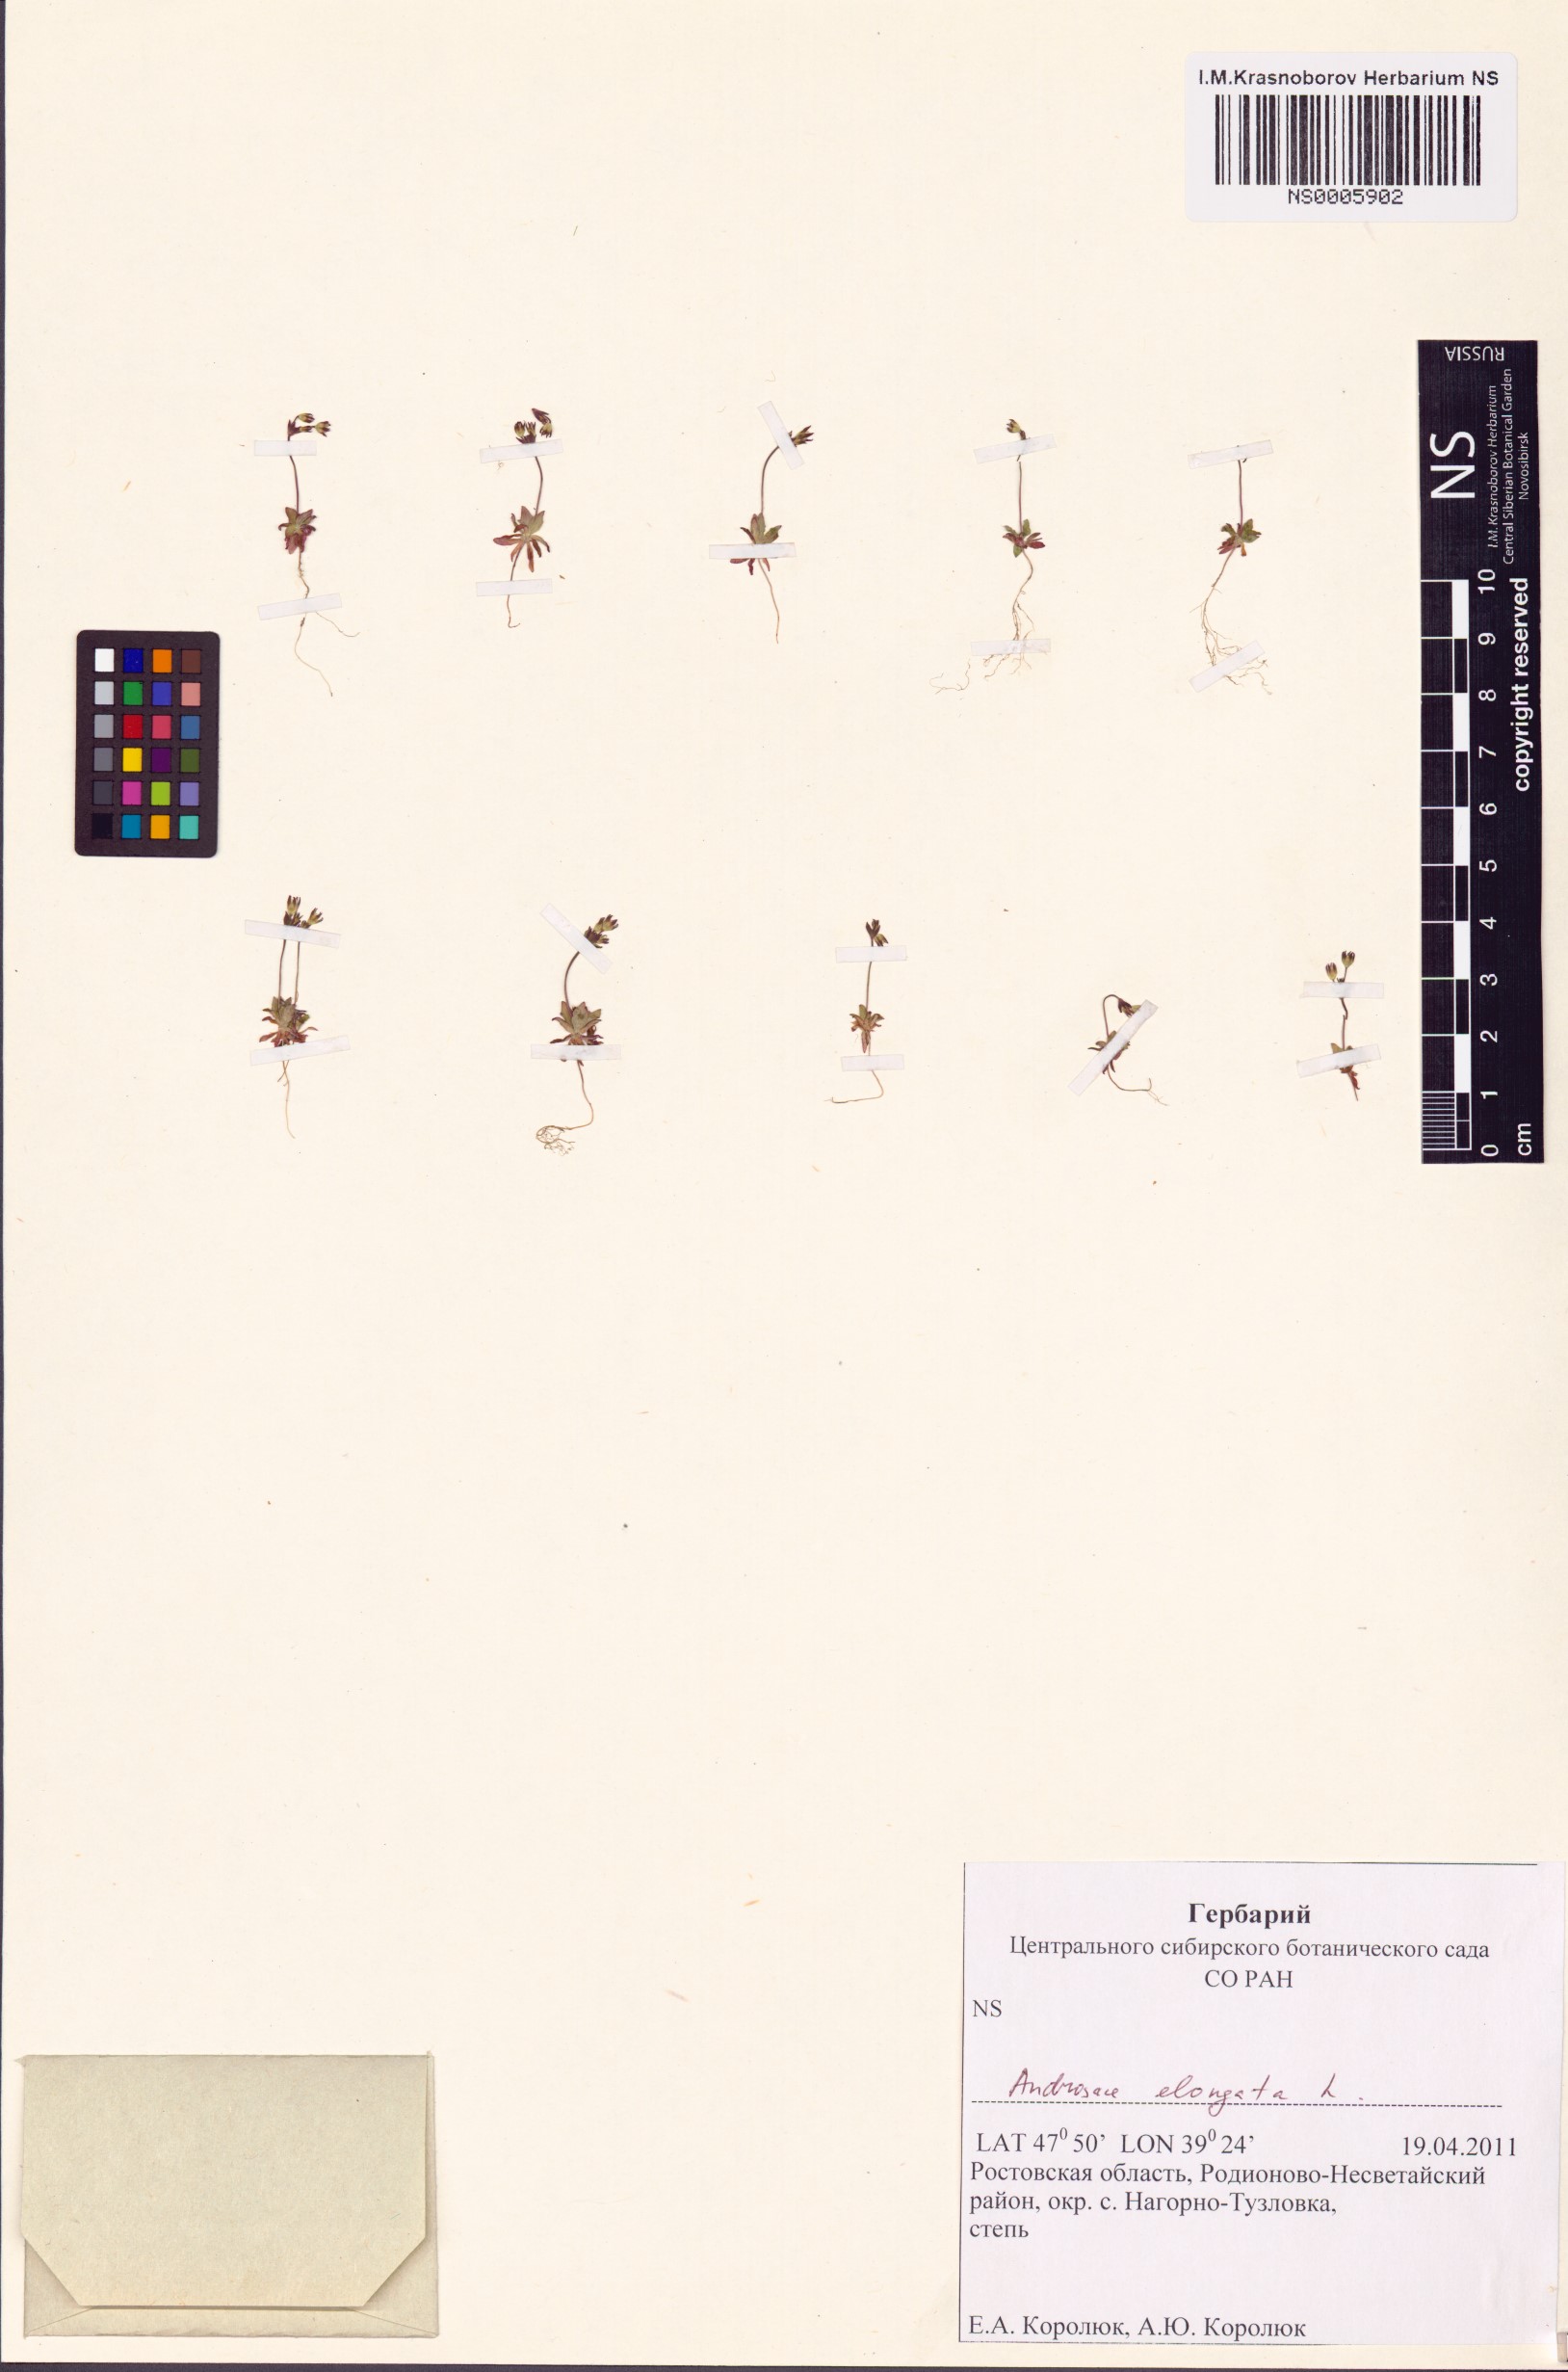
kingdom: Plantae
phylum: Tracheophyta
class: Magnoliopsida
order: Ericales
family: Primulaceae
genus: Androsace
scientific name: Androsace elongata
